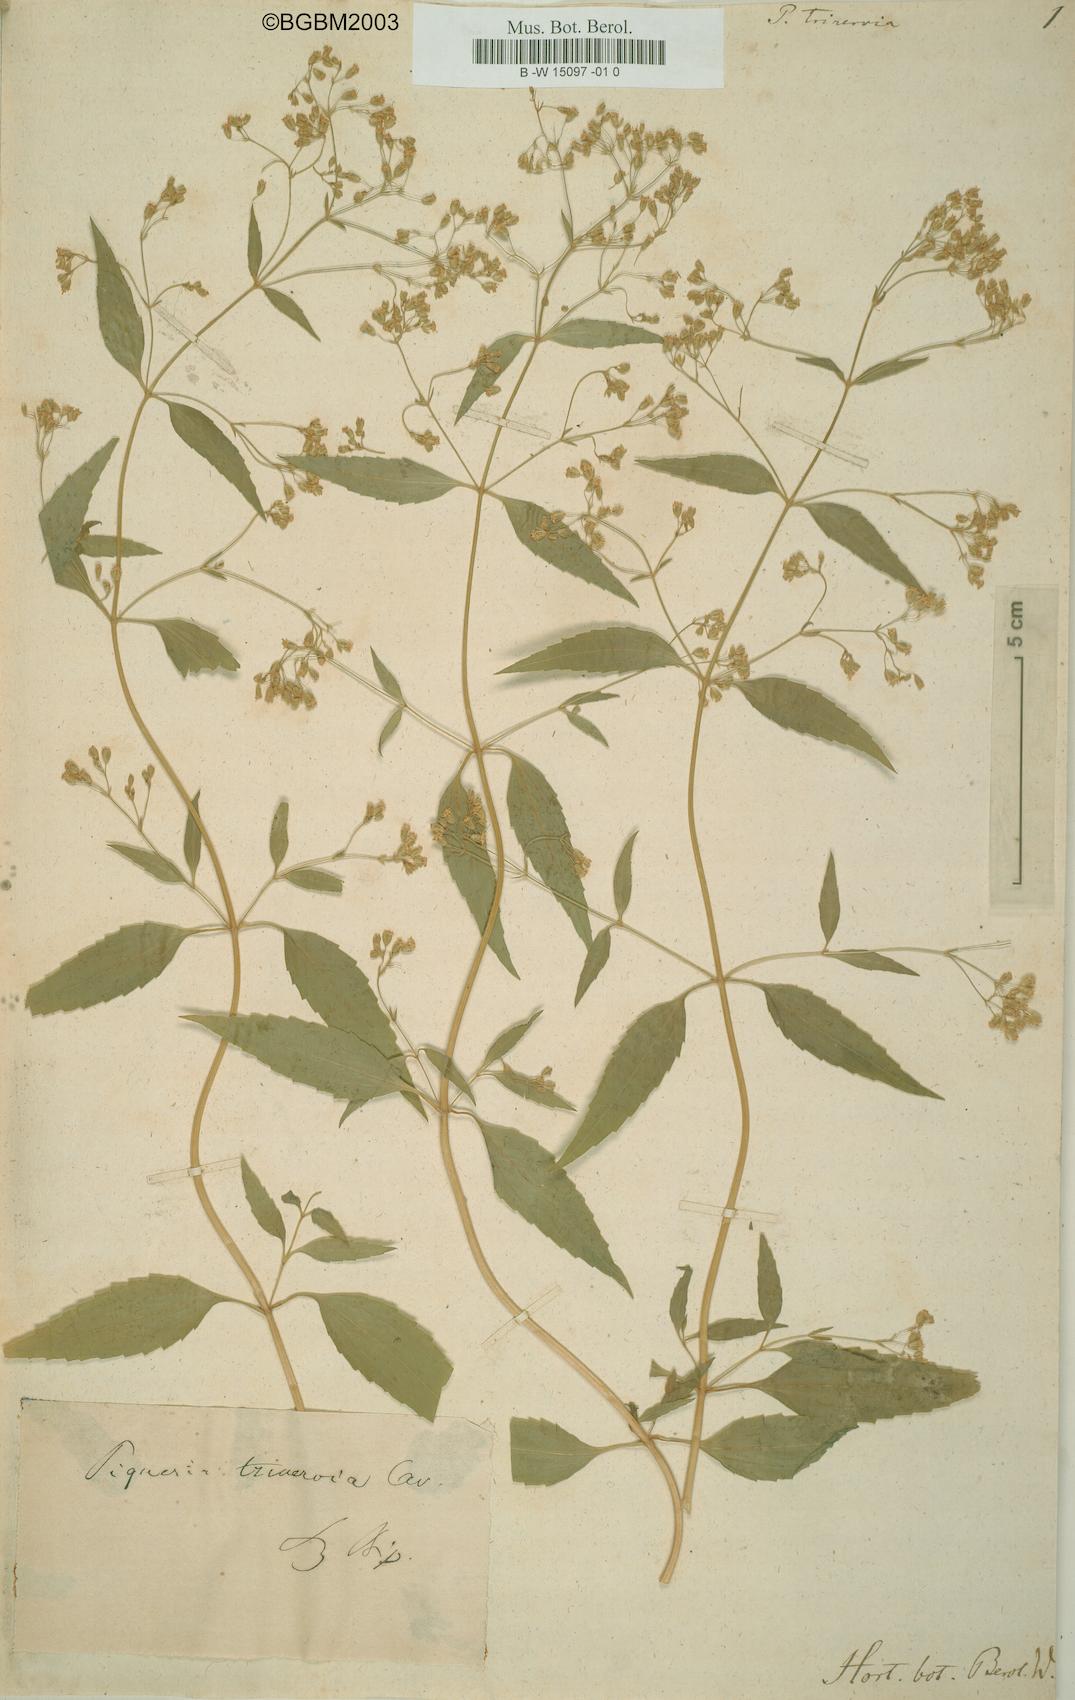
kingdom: Plantae
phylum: Tracheophyta
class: Magnoliopsida
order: Asterales
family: Asteraceae
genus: Piqueria
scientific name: Piqueria trinervia
